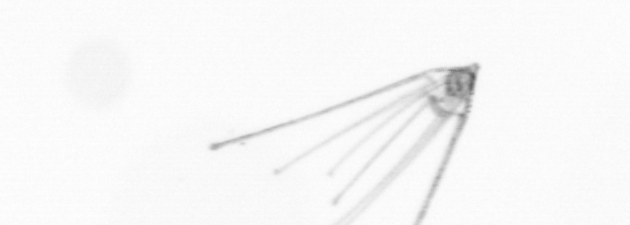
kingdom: Animalia
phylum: Echinodermata
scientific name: Echinodermata
